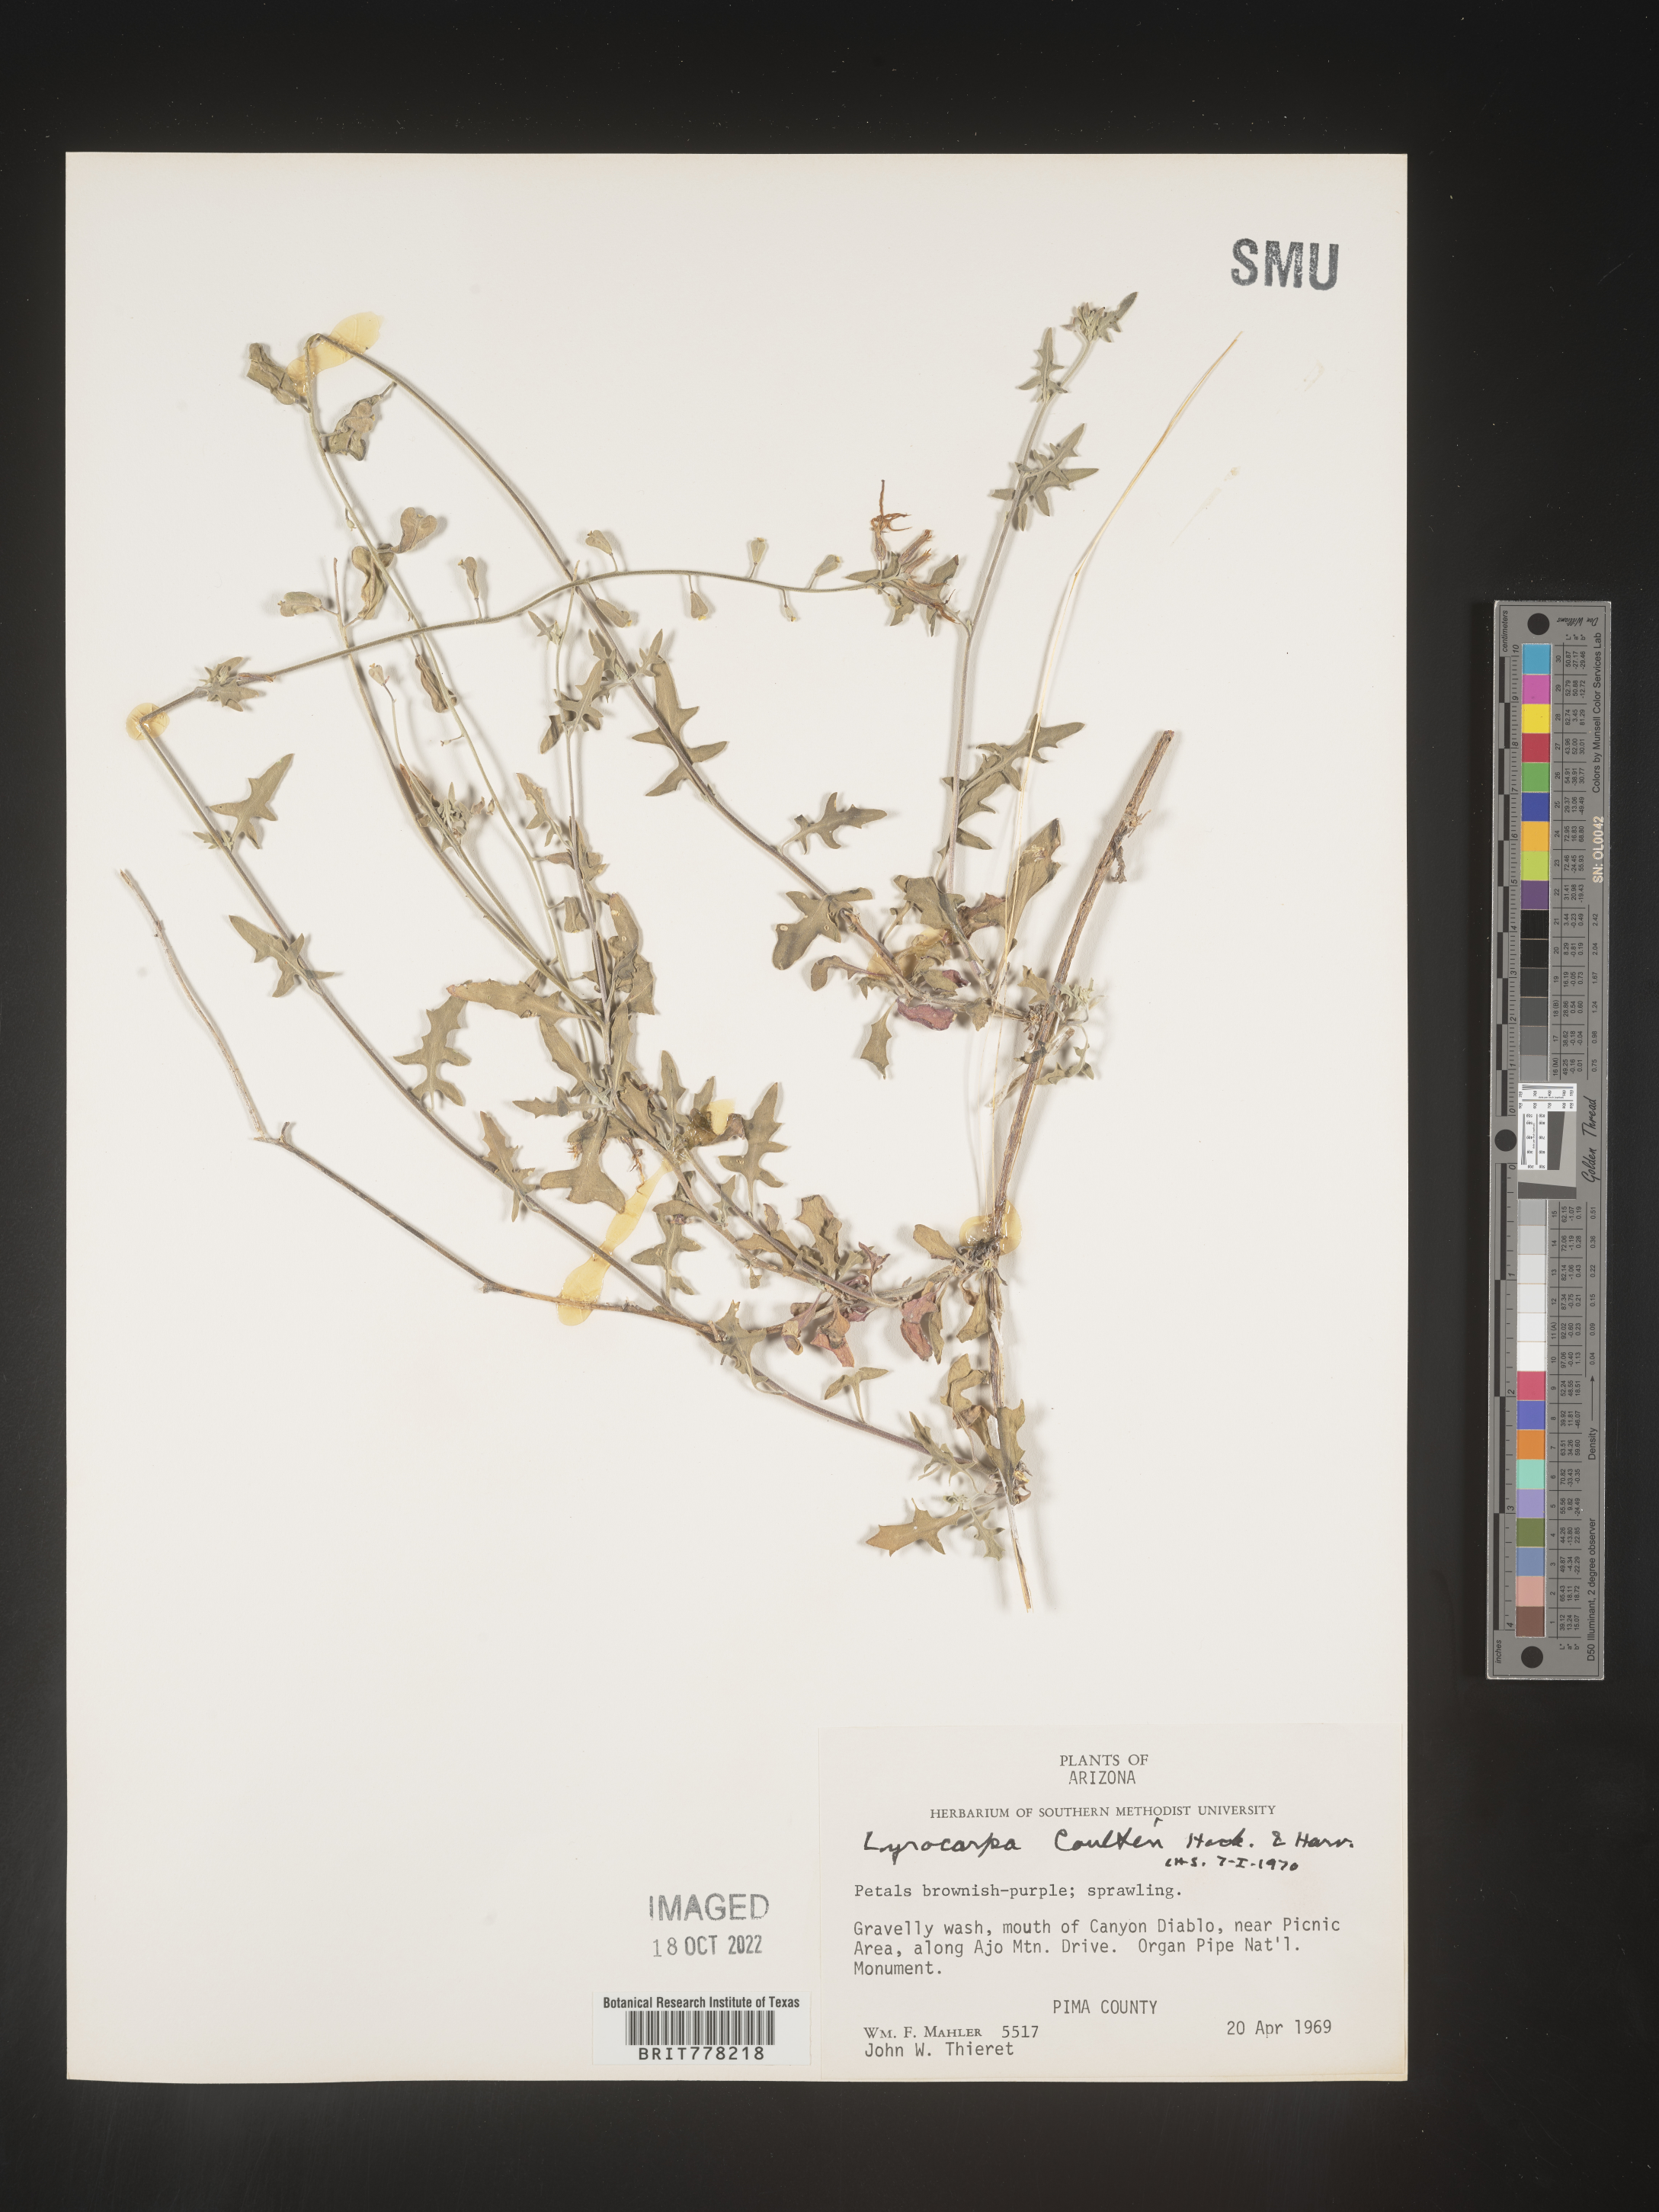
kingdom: Plantae
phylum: Tracheophyta
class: Magnoliopsida
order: Brassicales
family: Brassicaceae
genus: Lyrocarpa
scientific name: Lyrocarpa
